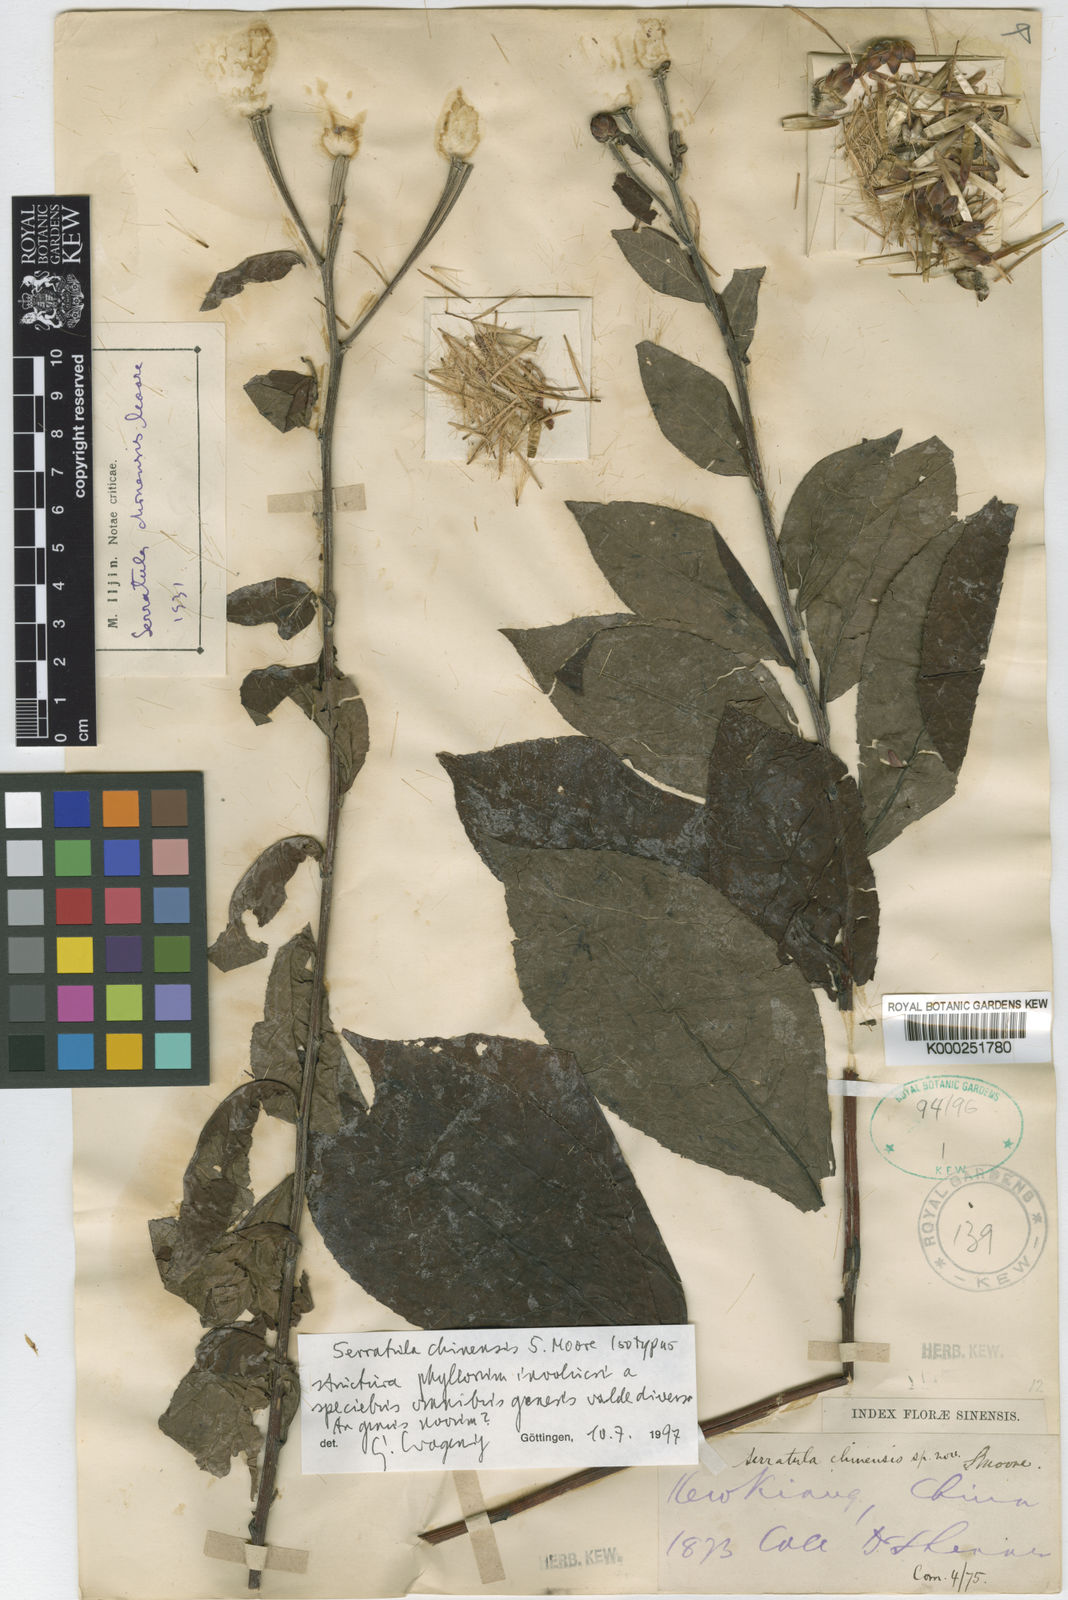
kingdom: Plantae
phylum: Tracheophyta
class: Magnoliopsida
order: Asterales
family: Asteraceae
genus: Leuzea
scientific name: Leuzea
